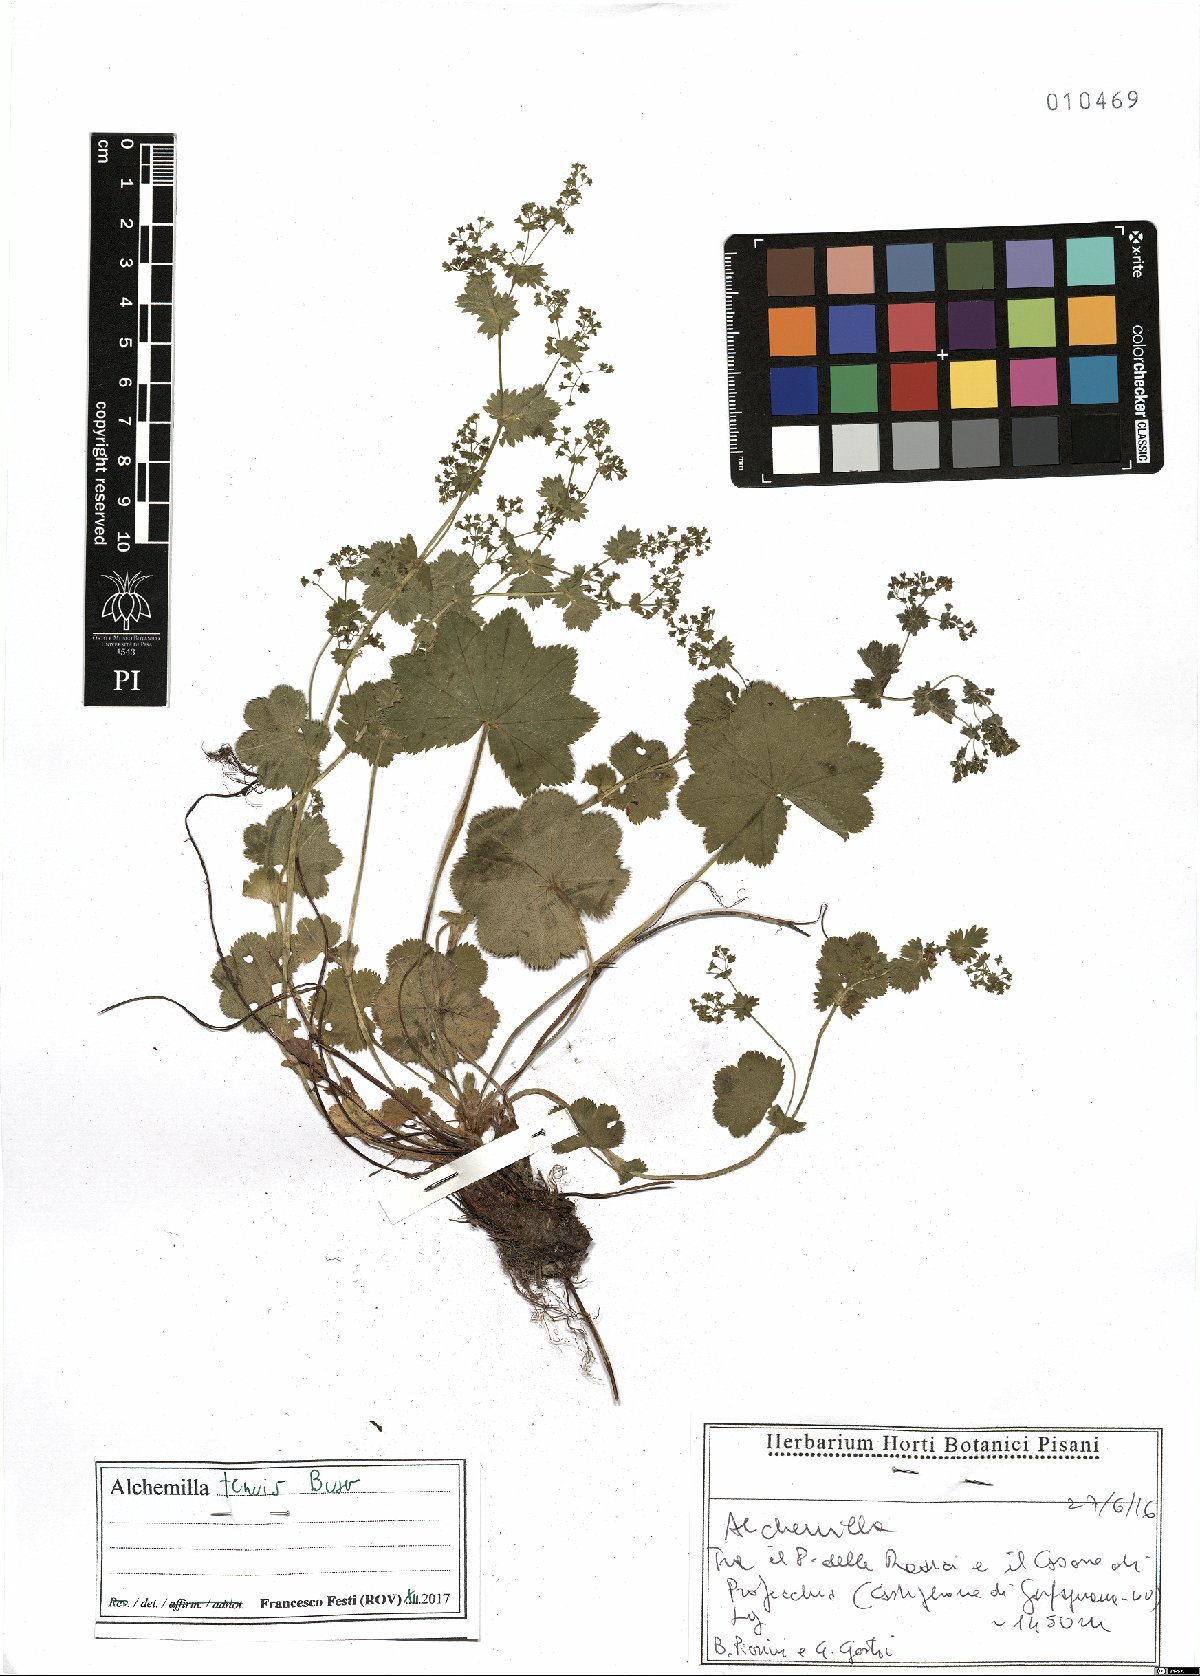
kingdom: Plantae
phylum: Tracheophyta
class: Magnoliopsida
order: Rosales
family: Rosaceae
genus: Alchemilla
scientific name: Alchemilla tenuis
